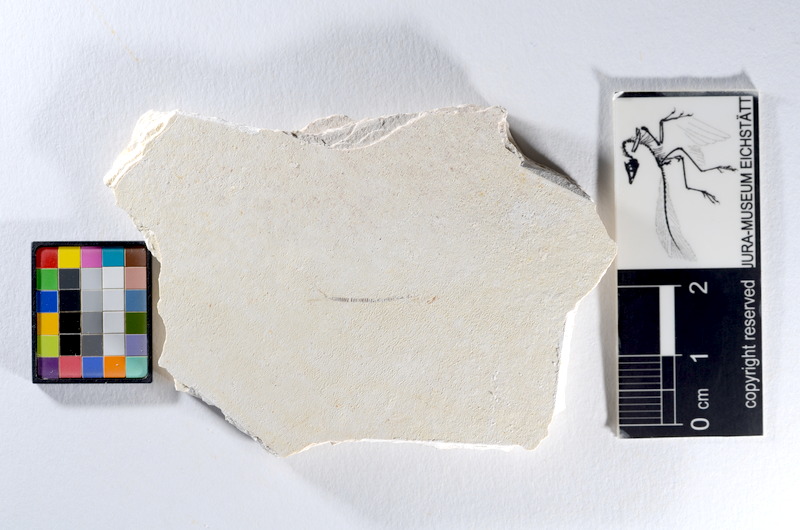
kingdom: Animalia
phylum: Chordata
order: Salmoniformes
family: Orthogonikleithridae
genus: Orthogonikleithrus
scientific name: Orthogonikleithrus hoelli
